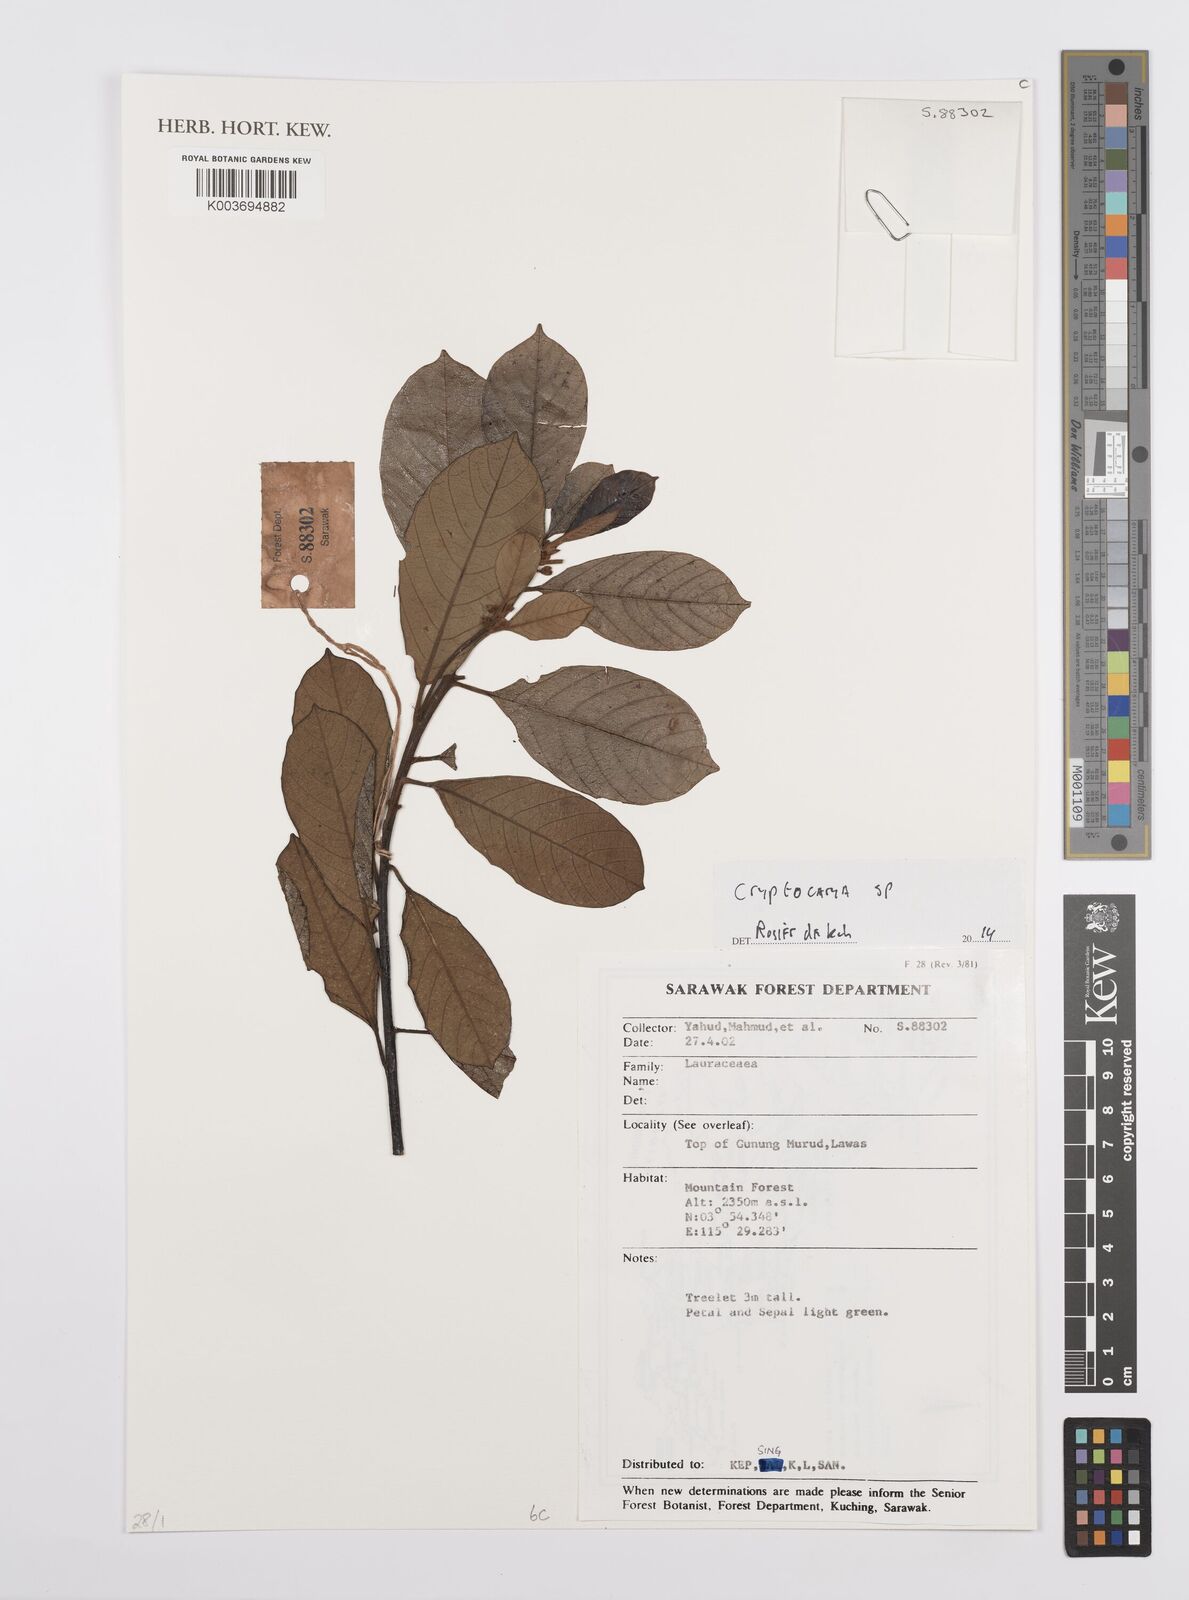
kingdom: Plantae
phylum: Tracheophyta
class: Magnoliopsida
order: Laurales
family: Lauraceae
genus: Cryptocarya
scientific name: Cryptocarya
